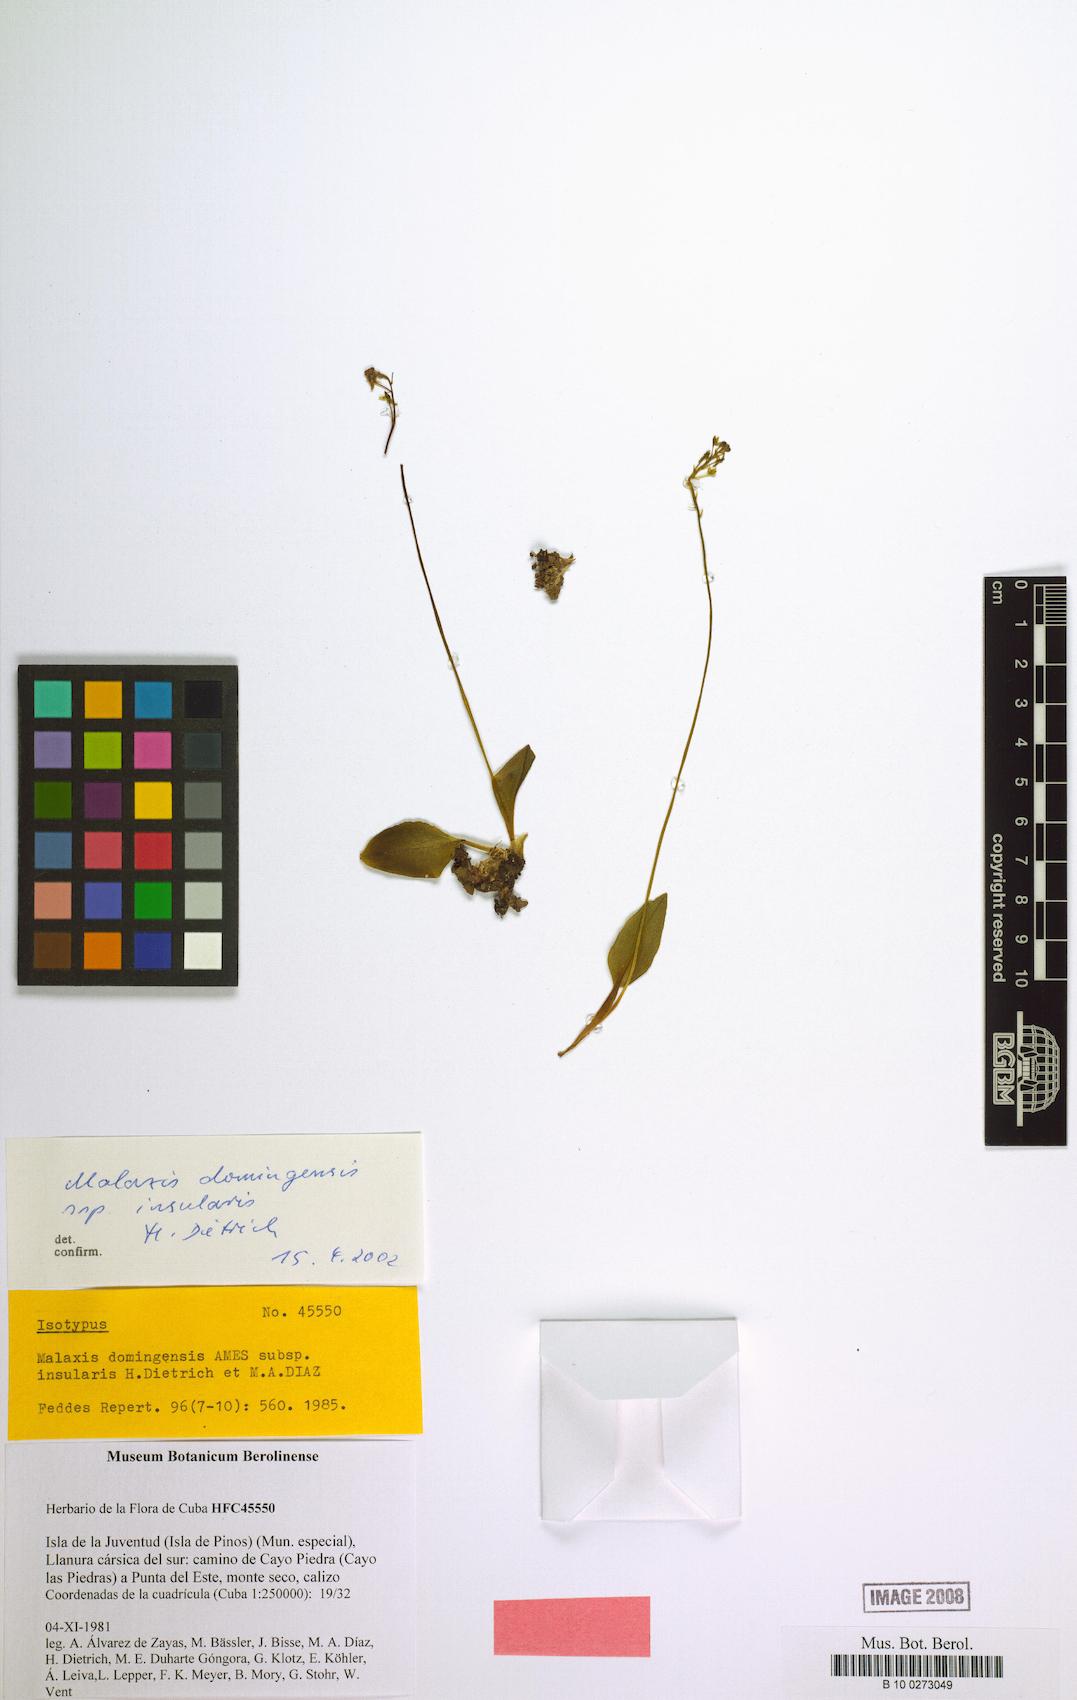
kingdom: Plantae
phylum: Tracheophyta
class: Liliopsida
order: Asparagales
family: Orchidaceae
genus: Malaxis
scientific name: Malaxis juventudensis
